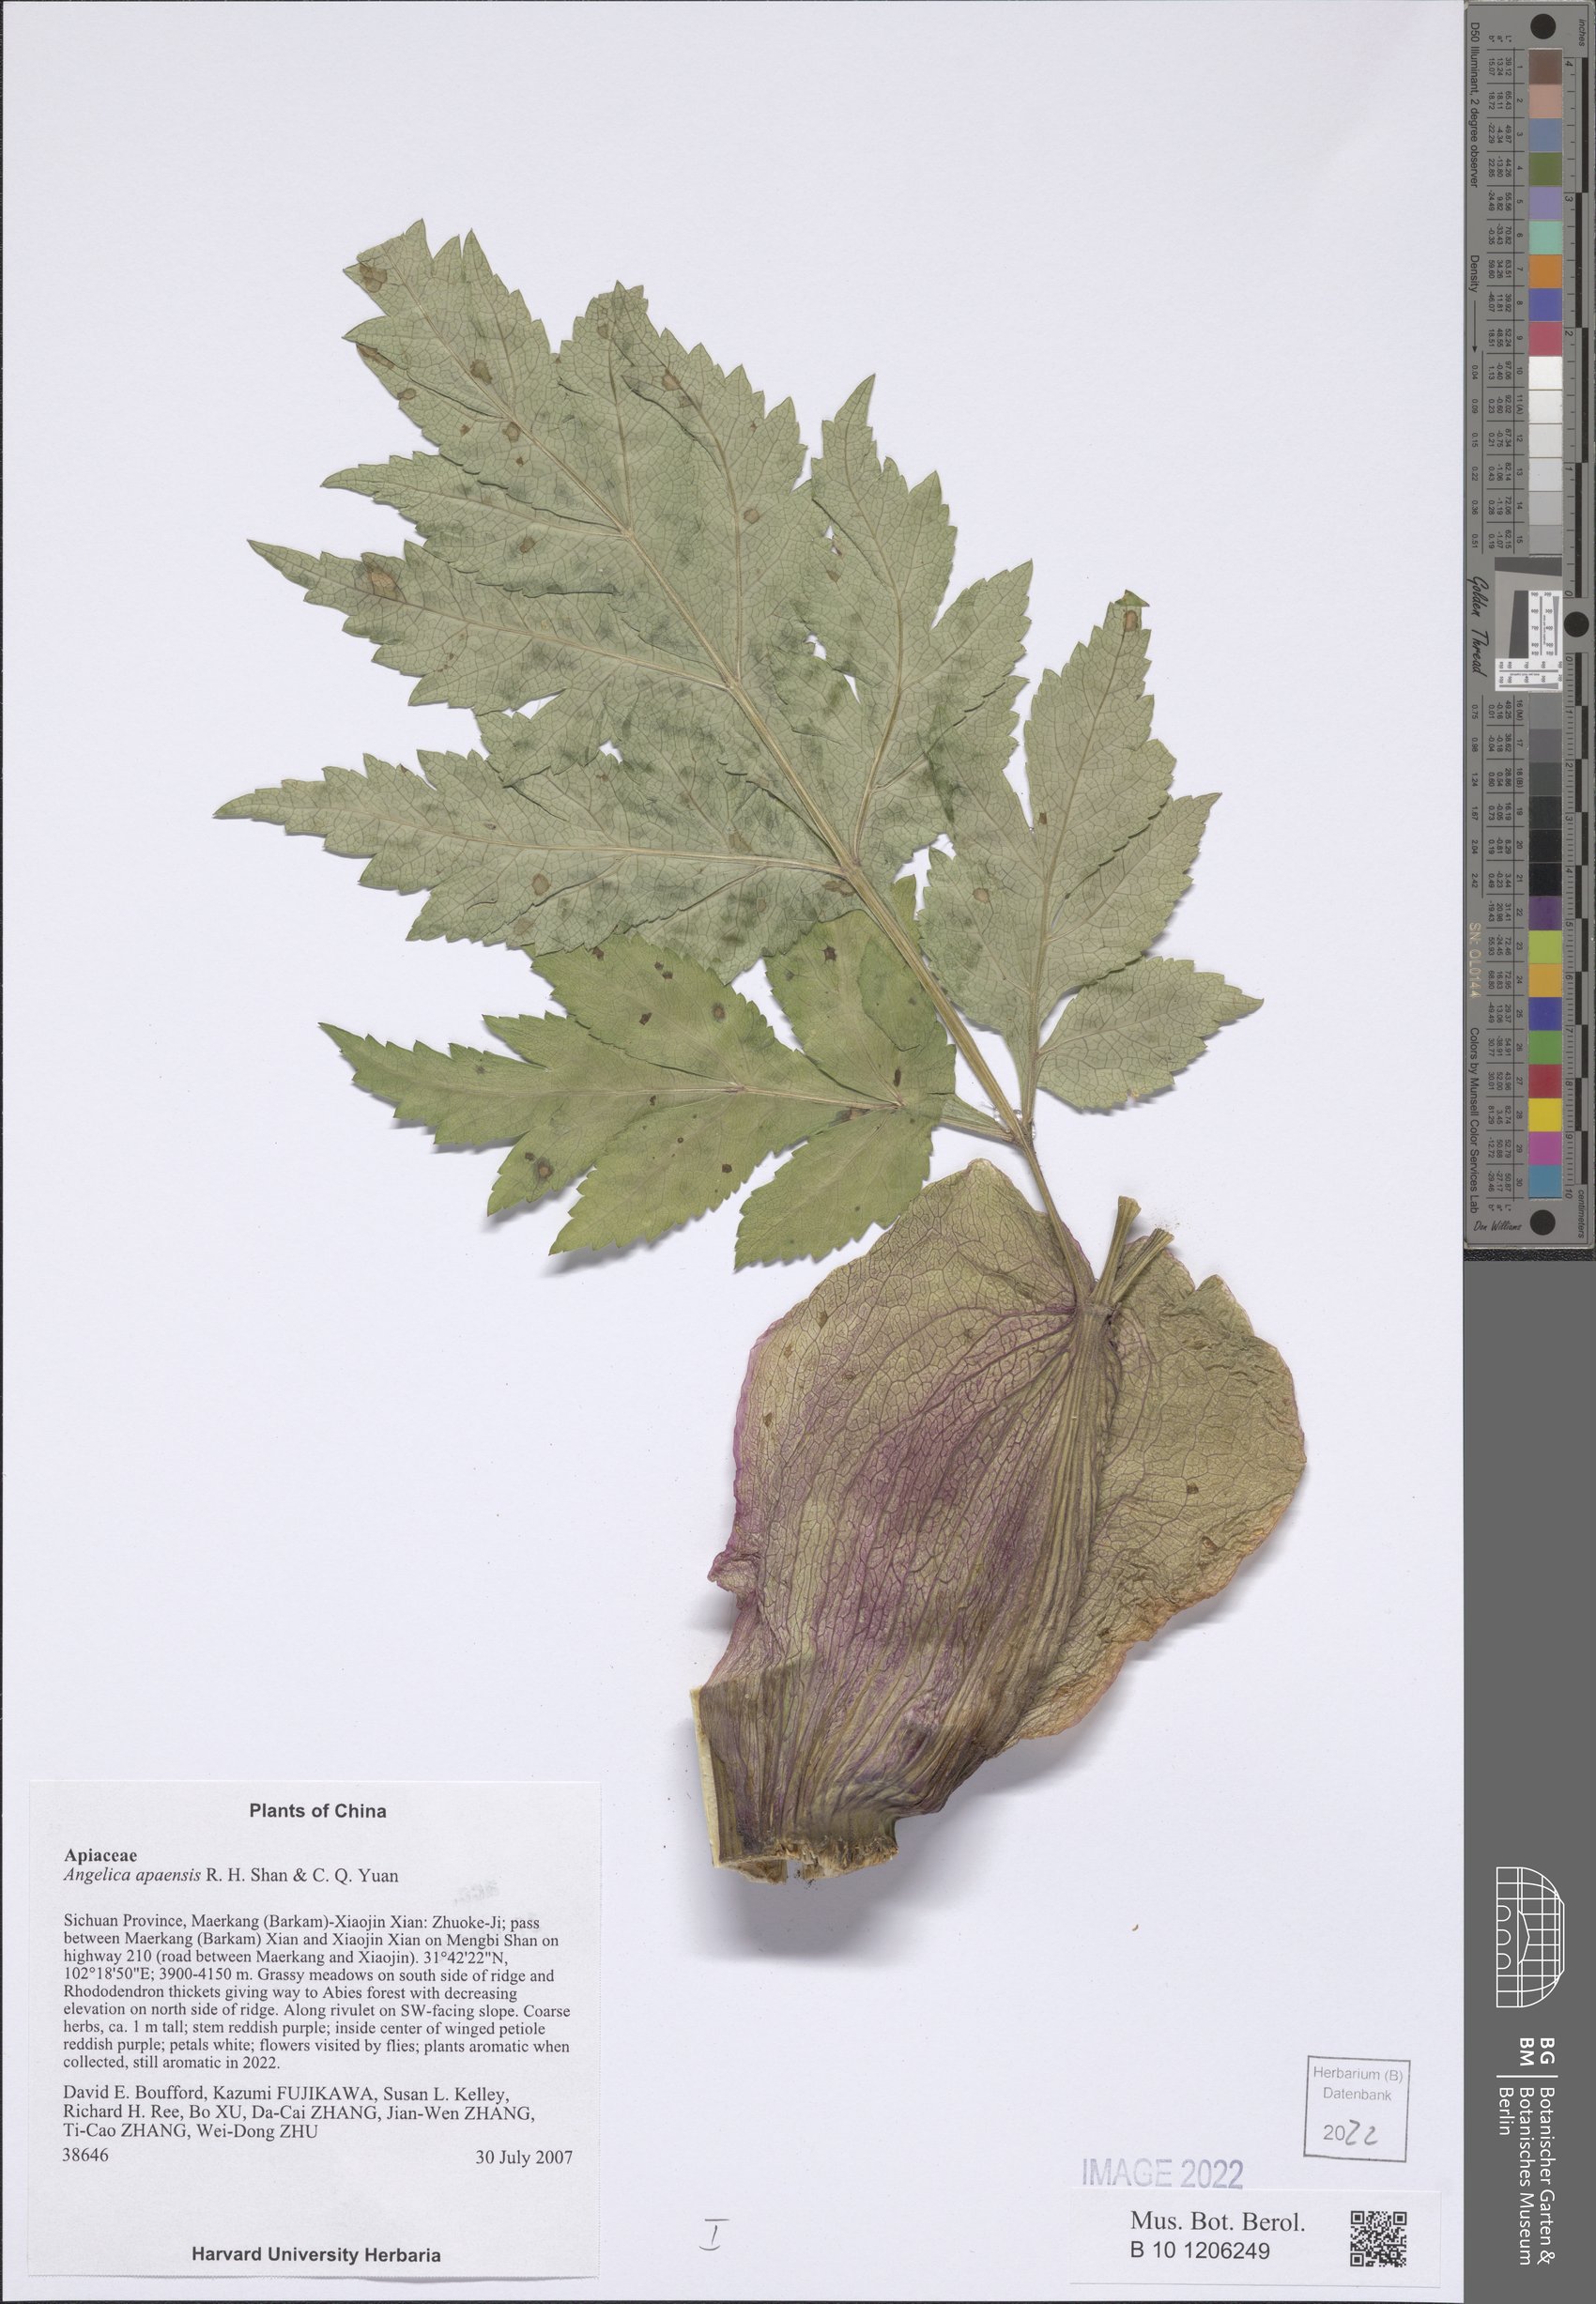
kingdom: Plantae
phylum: Tracheophyta
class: Magnoliopsida
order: Apiales
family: Apiaceae
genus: Angelica
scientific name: Angelica apaensis
